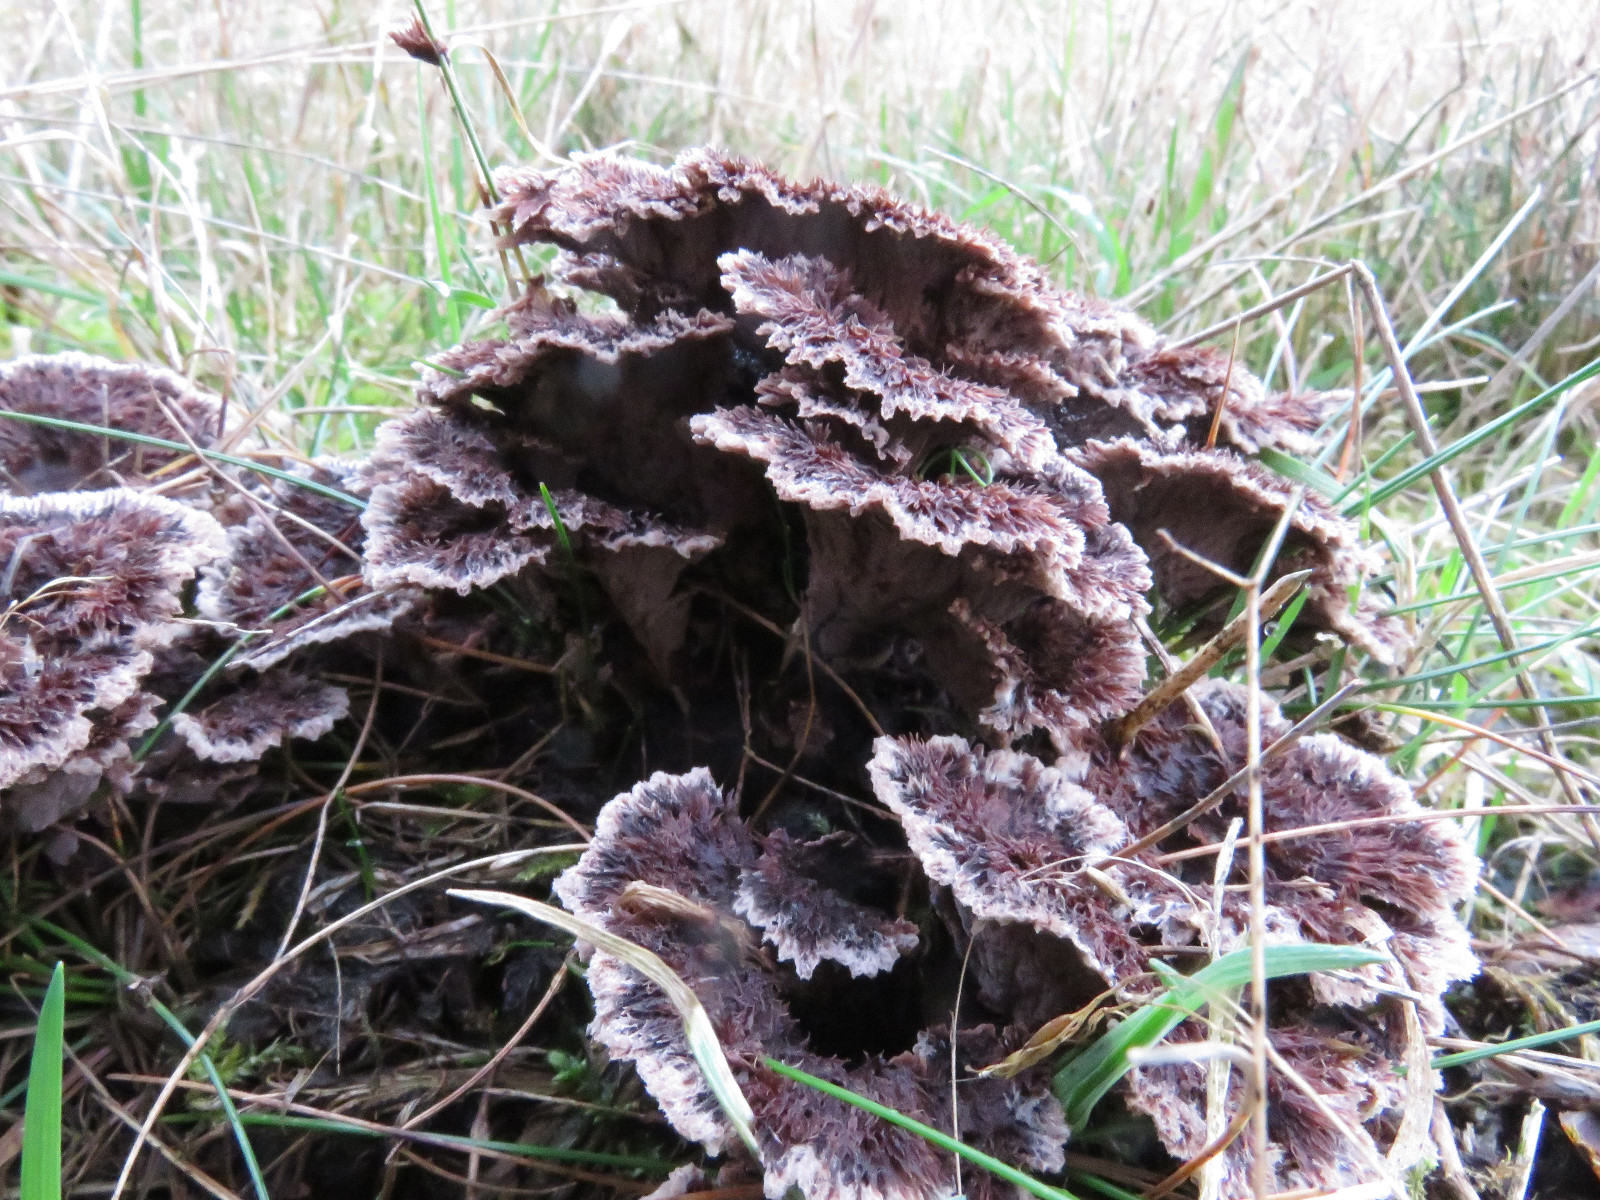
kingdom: Fungi
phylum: Basidiomycota
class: Agaricomycetes
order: Thelephorales
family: Thelephoraceae
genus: Thelephora
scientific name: Thelephora terrestris
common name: fliget frynsesvamp
